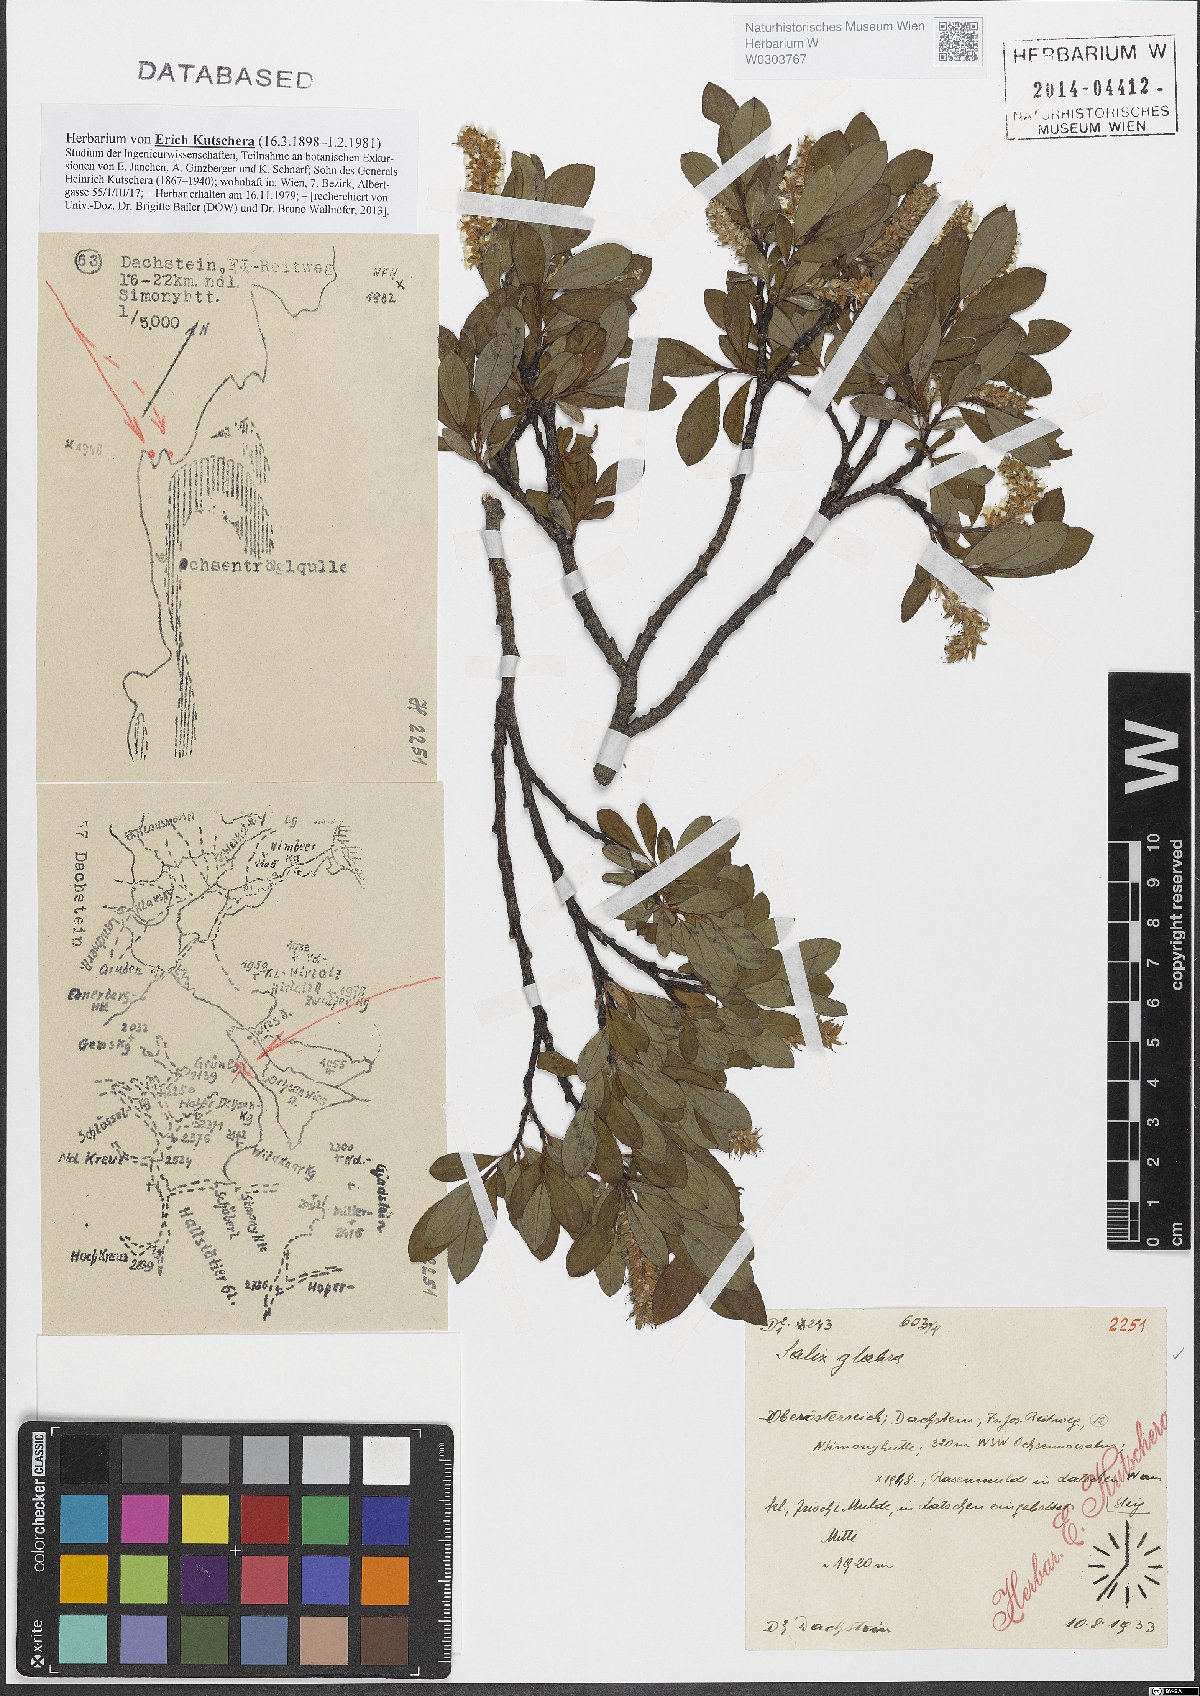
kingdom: Plantae
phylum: Tracheophyta
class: Magnoliopsida
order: Malpighiales
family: Salicaceae
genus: Salix
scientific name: Salix glabra
